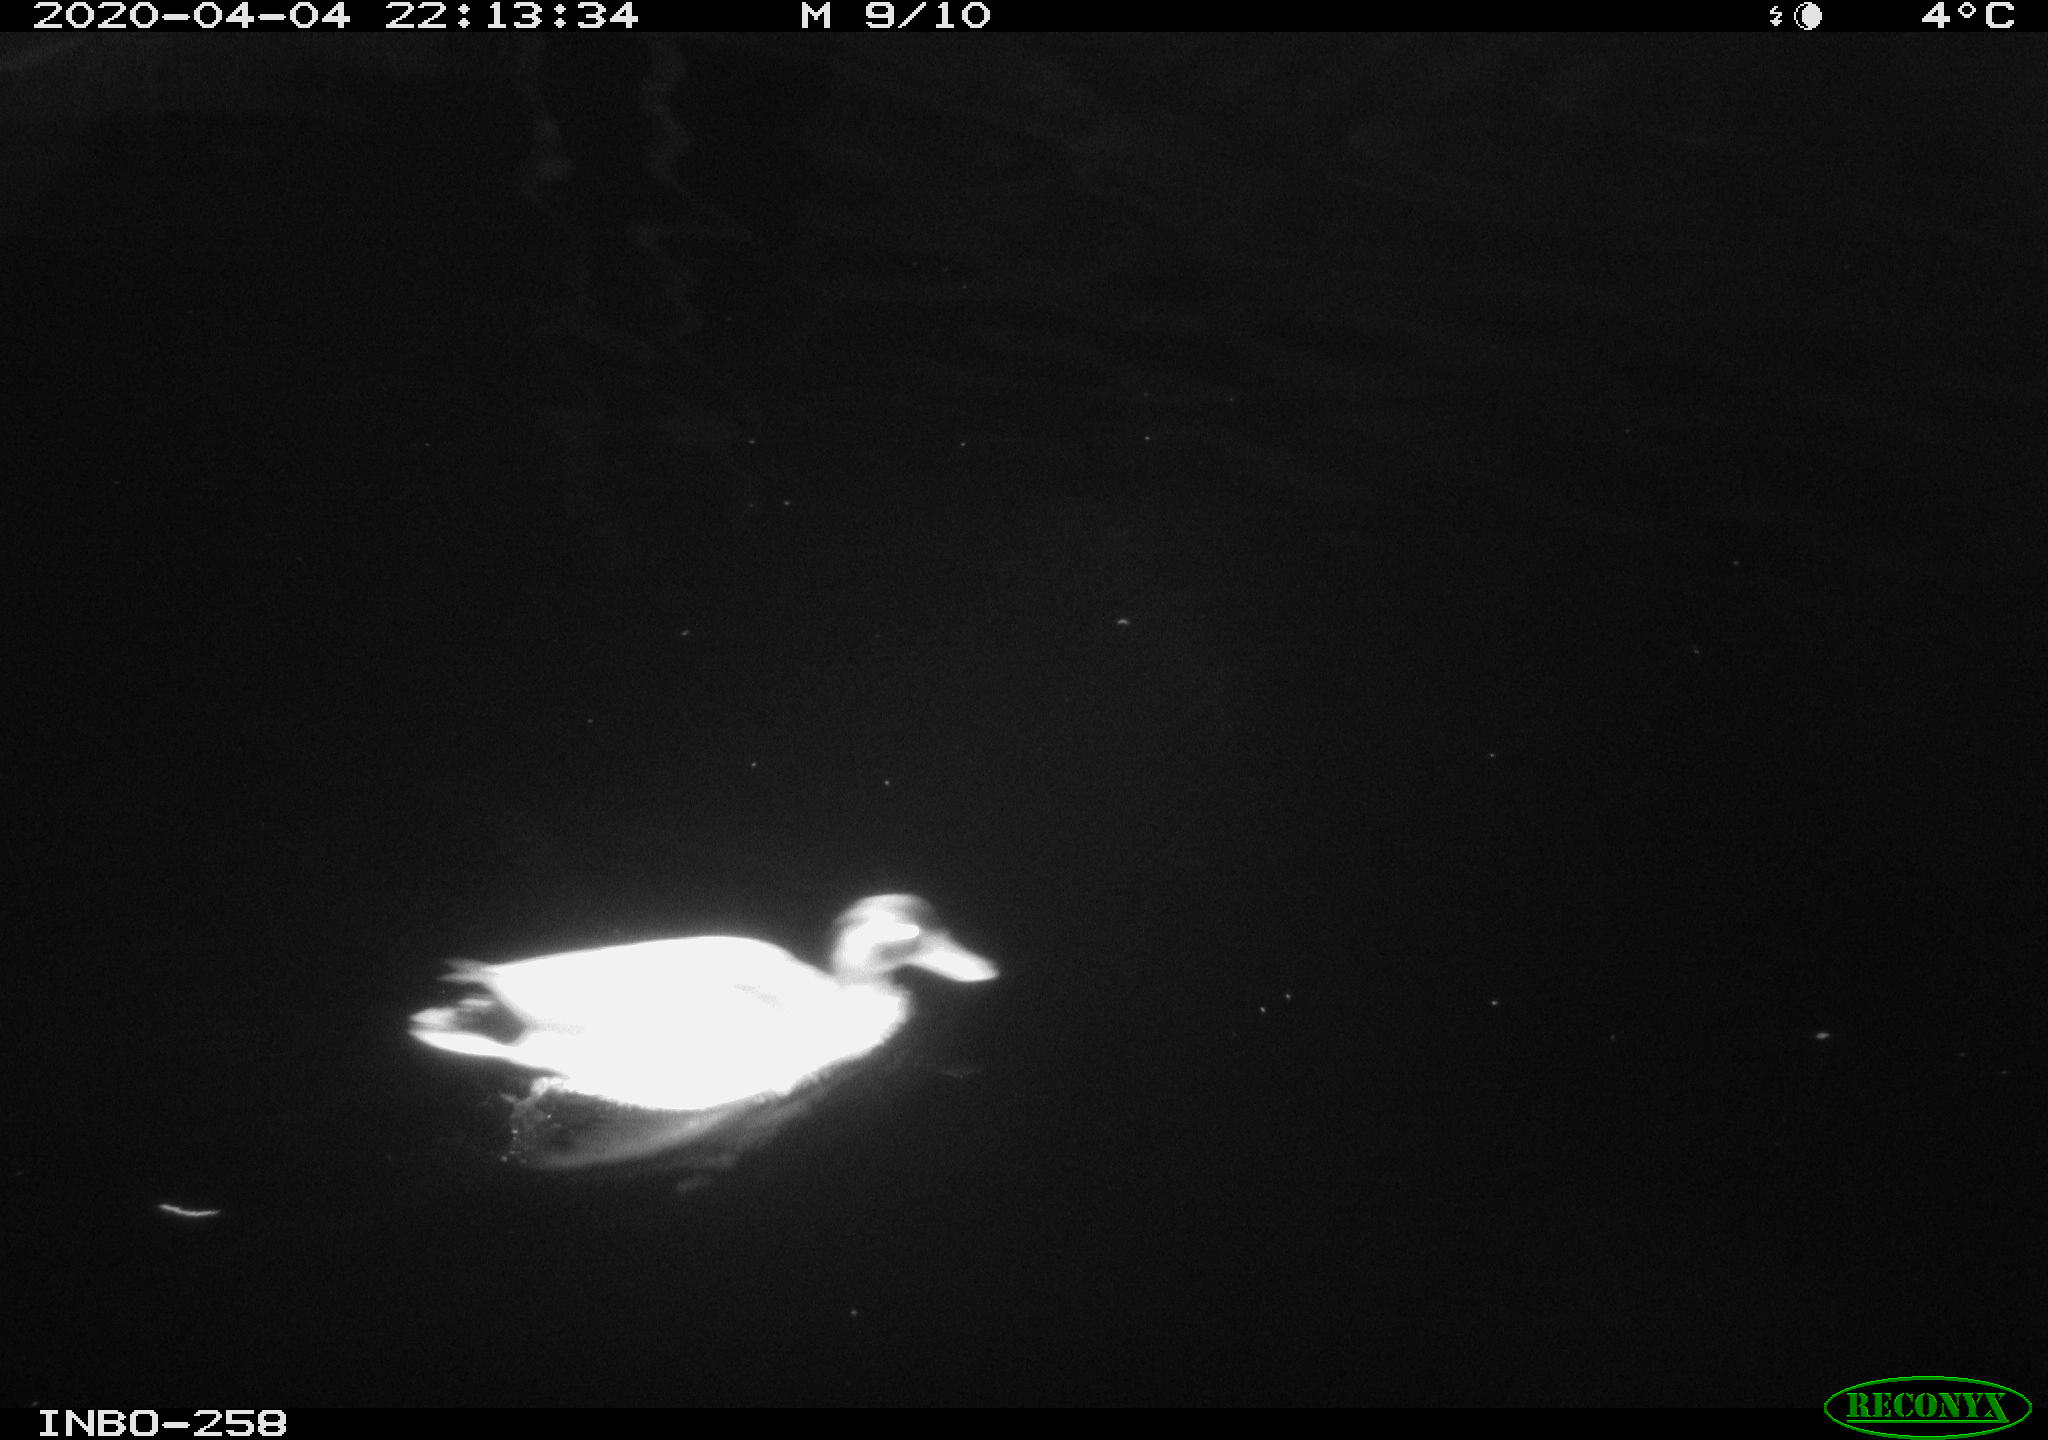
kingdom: Animalia
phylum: Chordata
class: Aves
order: Anseriformes
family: Anatidae
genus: Anas
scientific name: Anas platyrhynchos
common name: Mallard
